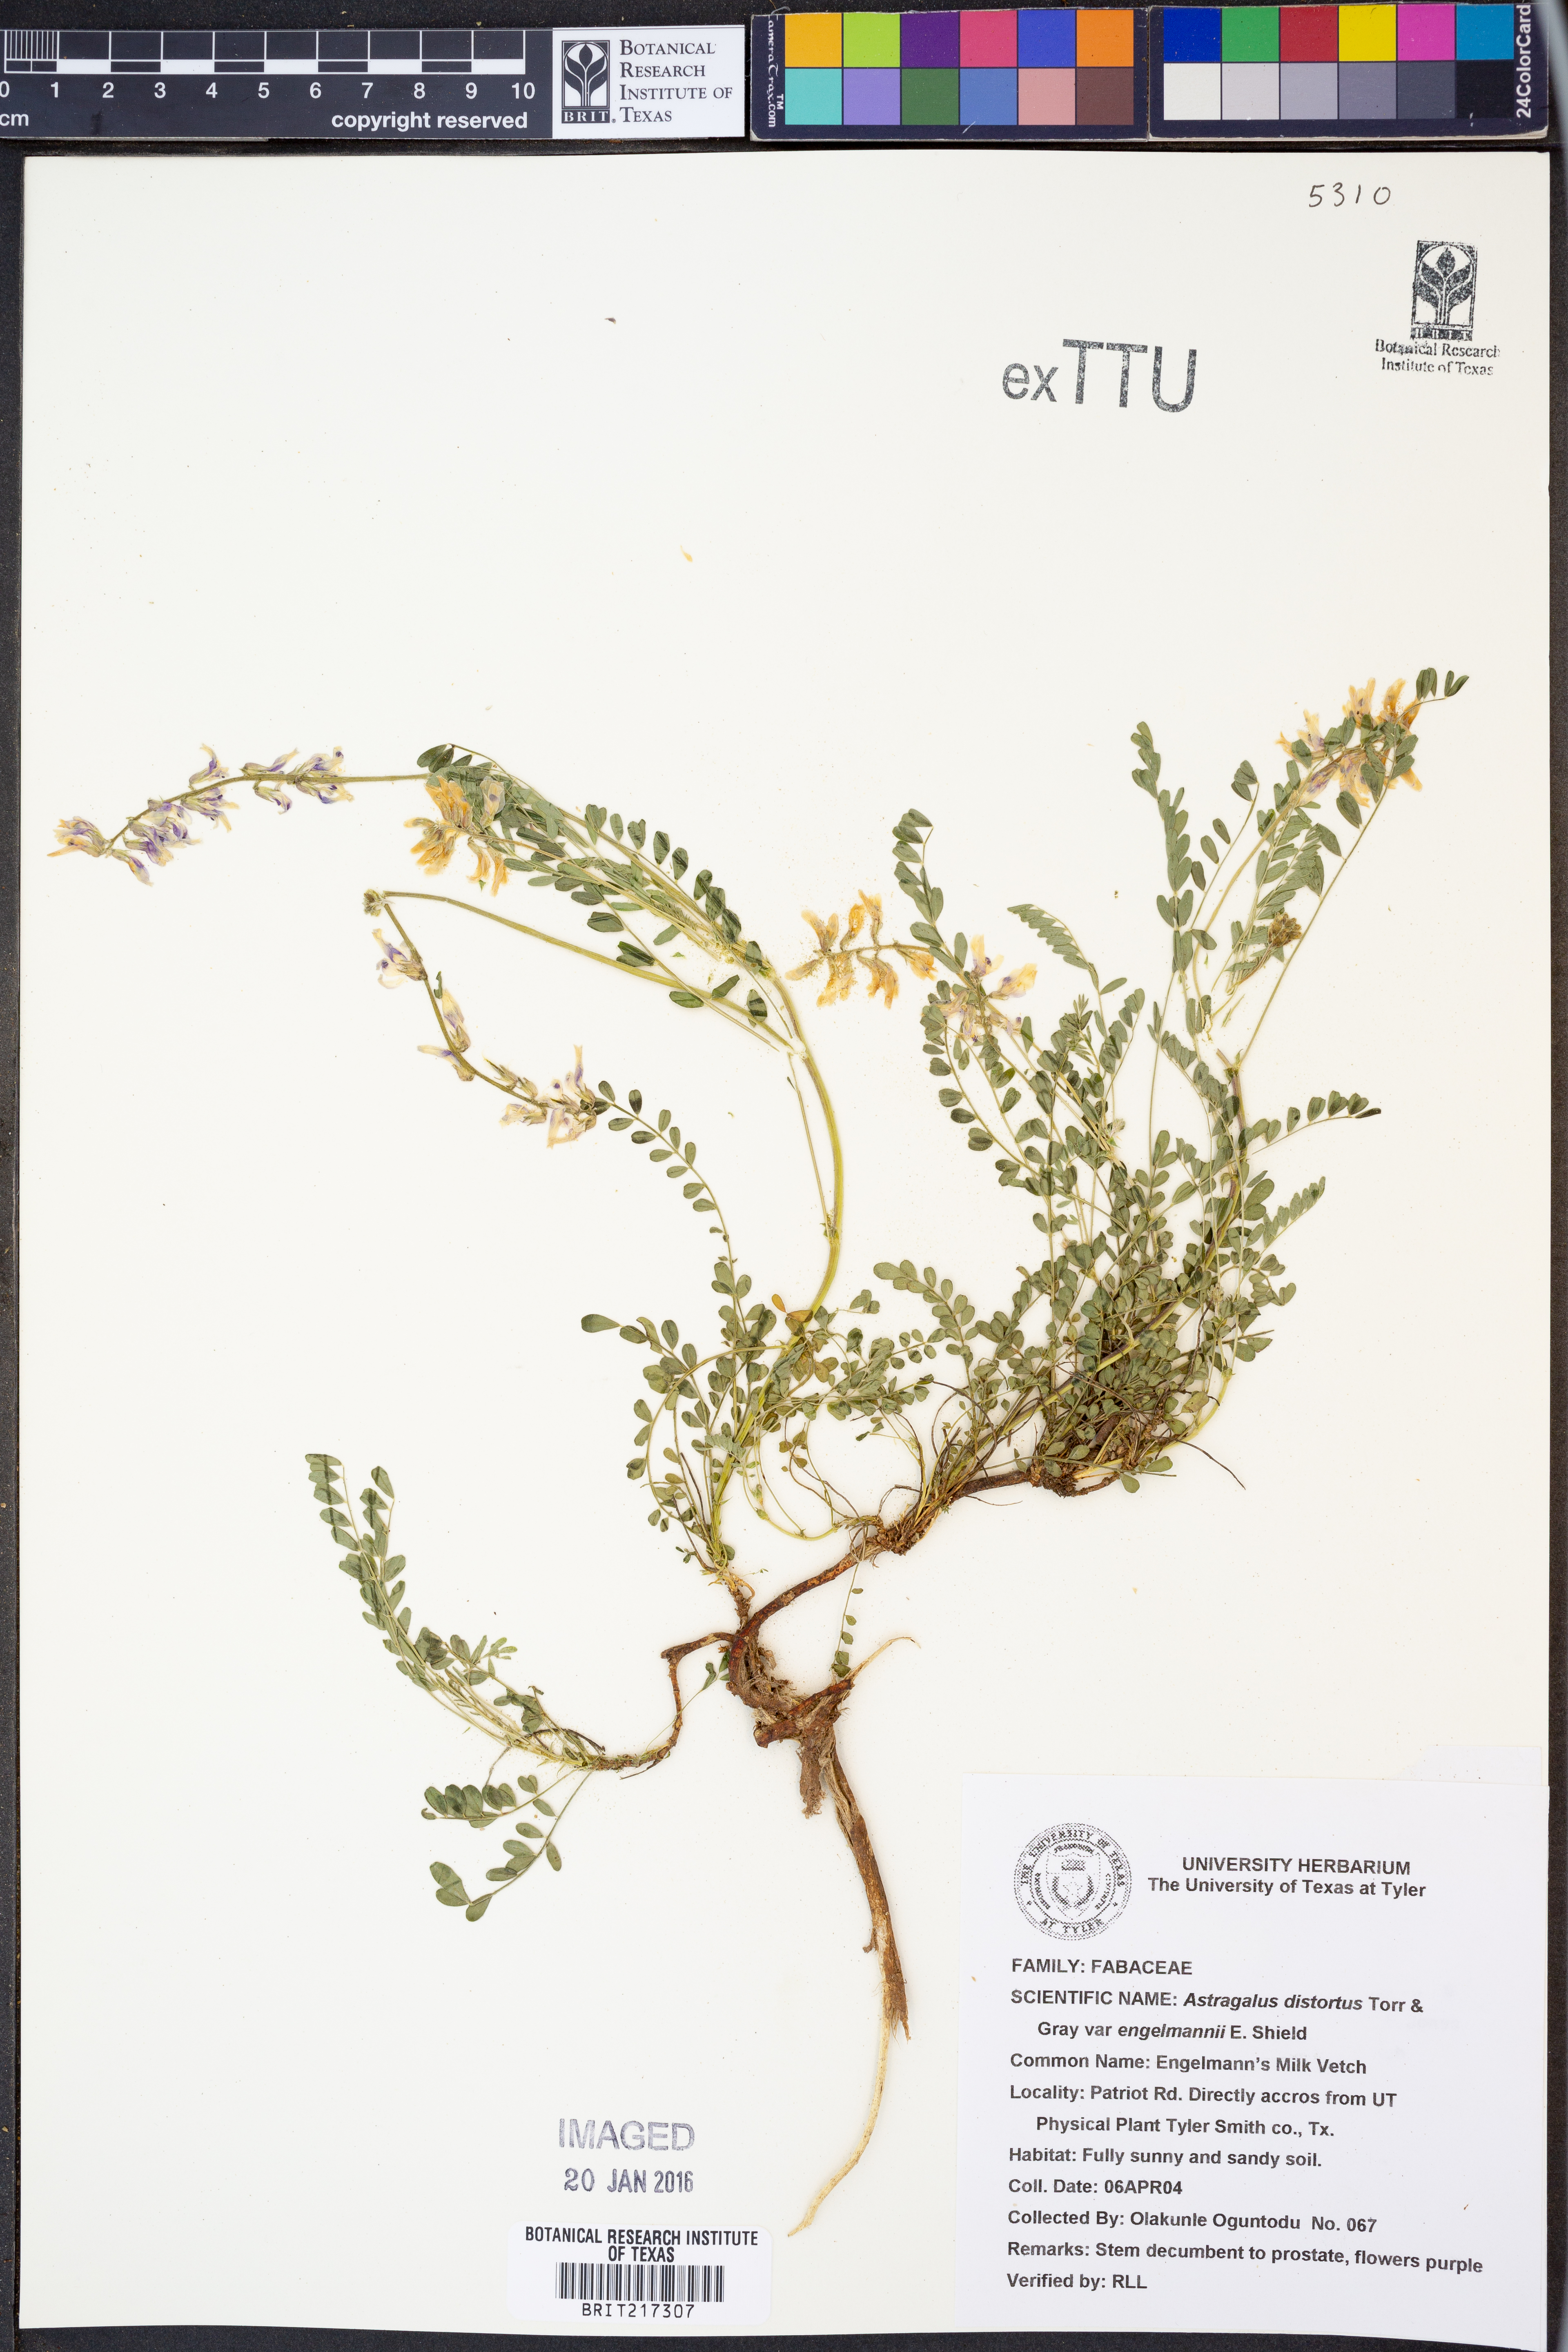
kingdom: Plantae
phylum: Tracheophyta
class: Magnoliopsida
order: Fabales
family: Fabaceae
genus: Astragalus
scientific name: Astragalus distortus
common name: Ozark milk-vetch
